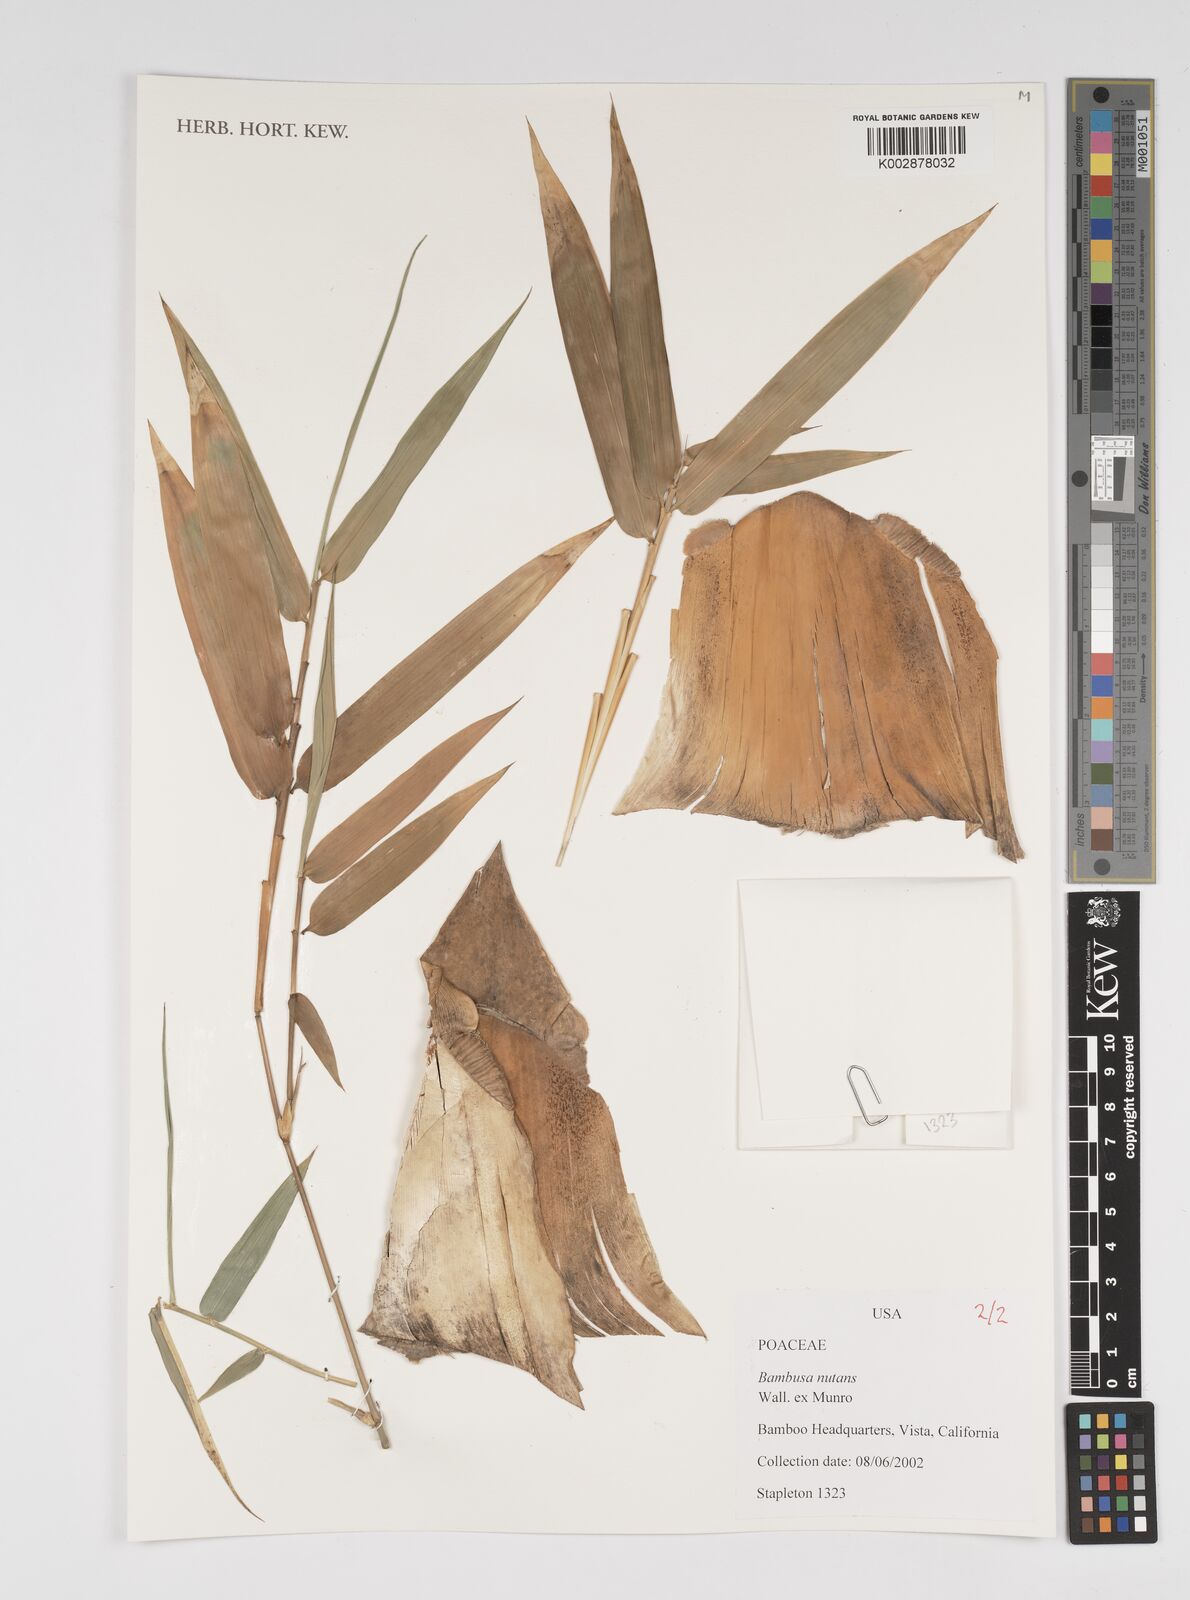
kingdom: Plantae
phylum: Tracheophyta
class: Liliopsida
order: Poales
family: Poaceae
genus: Bambusa
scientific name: Bambusa nutans
